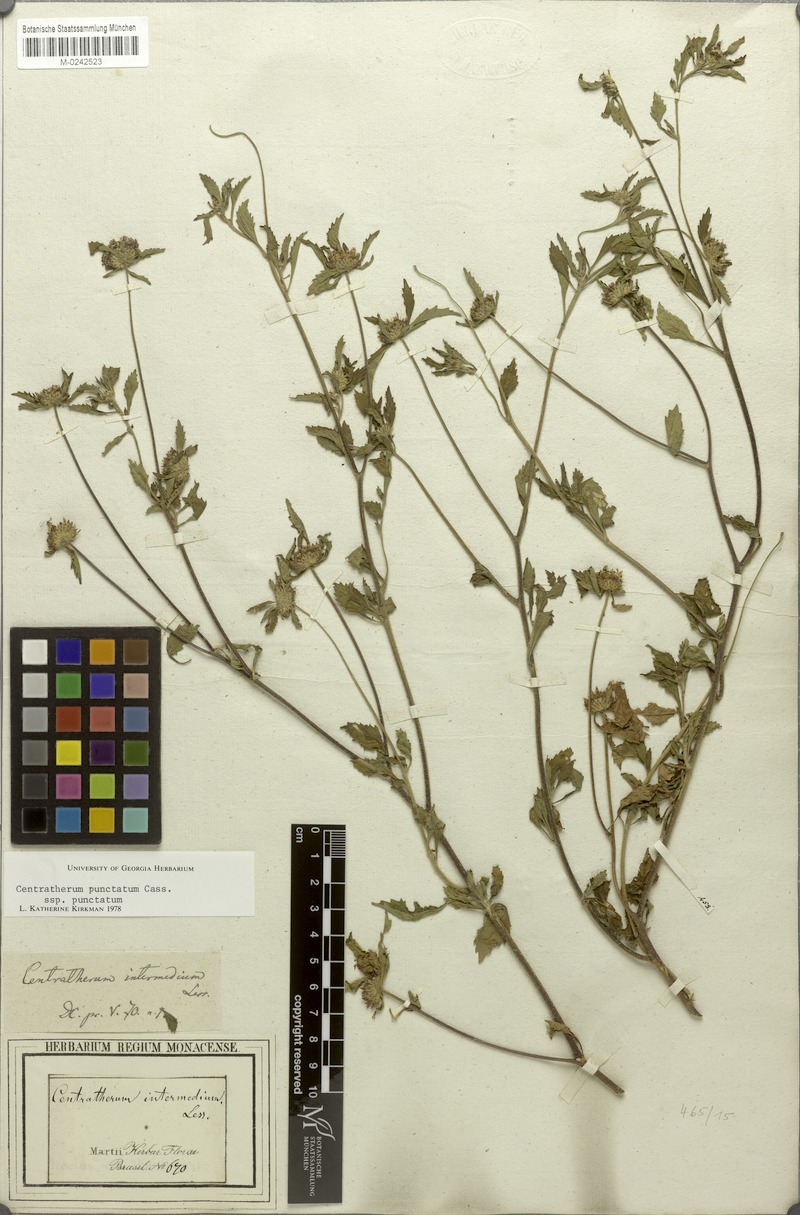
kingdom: Plantae
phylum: Tracheophyta
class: Magnoliopsida
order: Asterales
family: Asteraceae
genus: Centratherum
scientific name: Centratherum punctatum
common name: Larkdaisy
